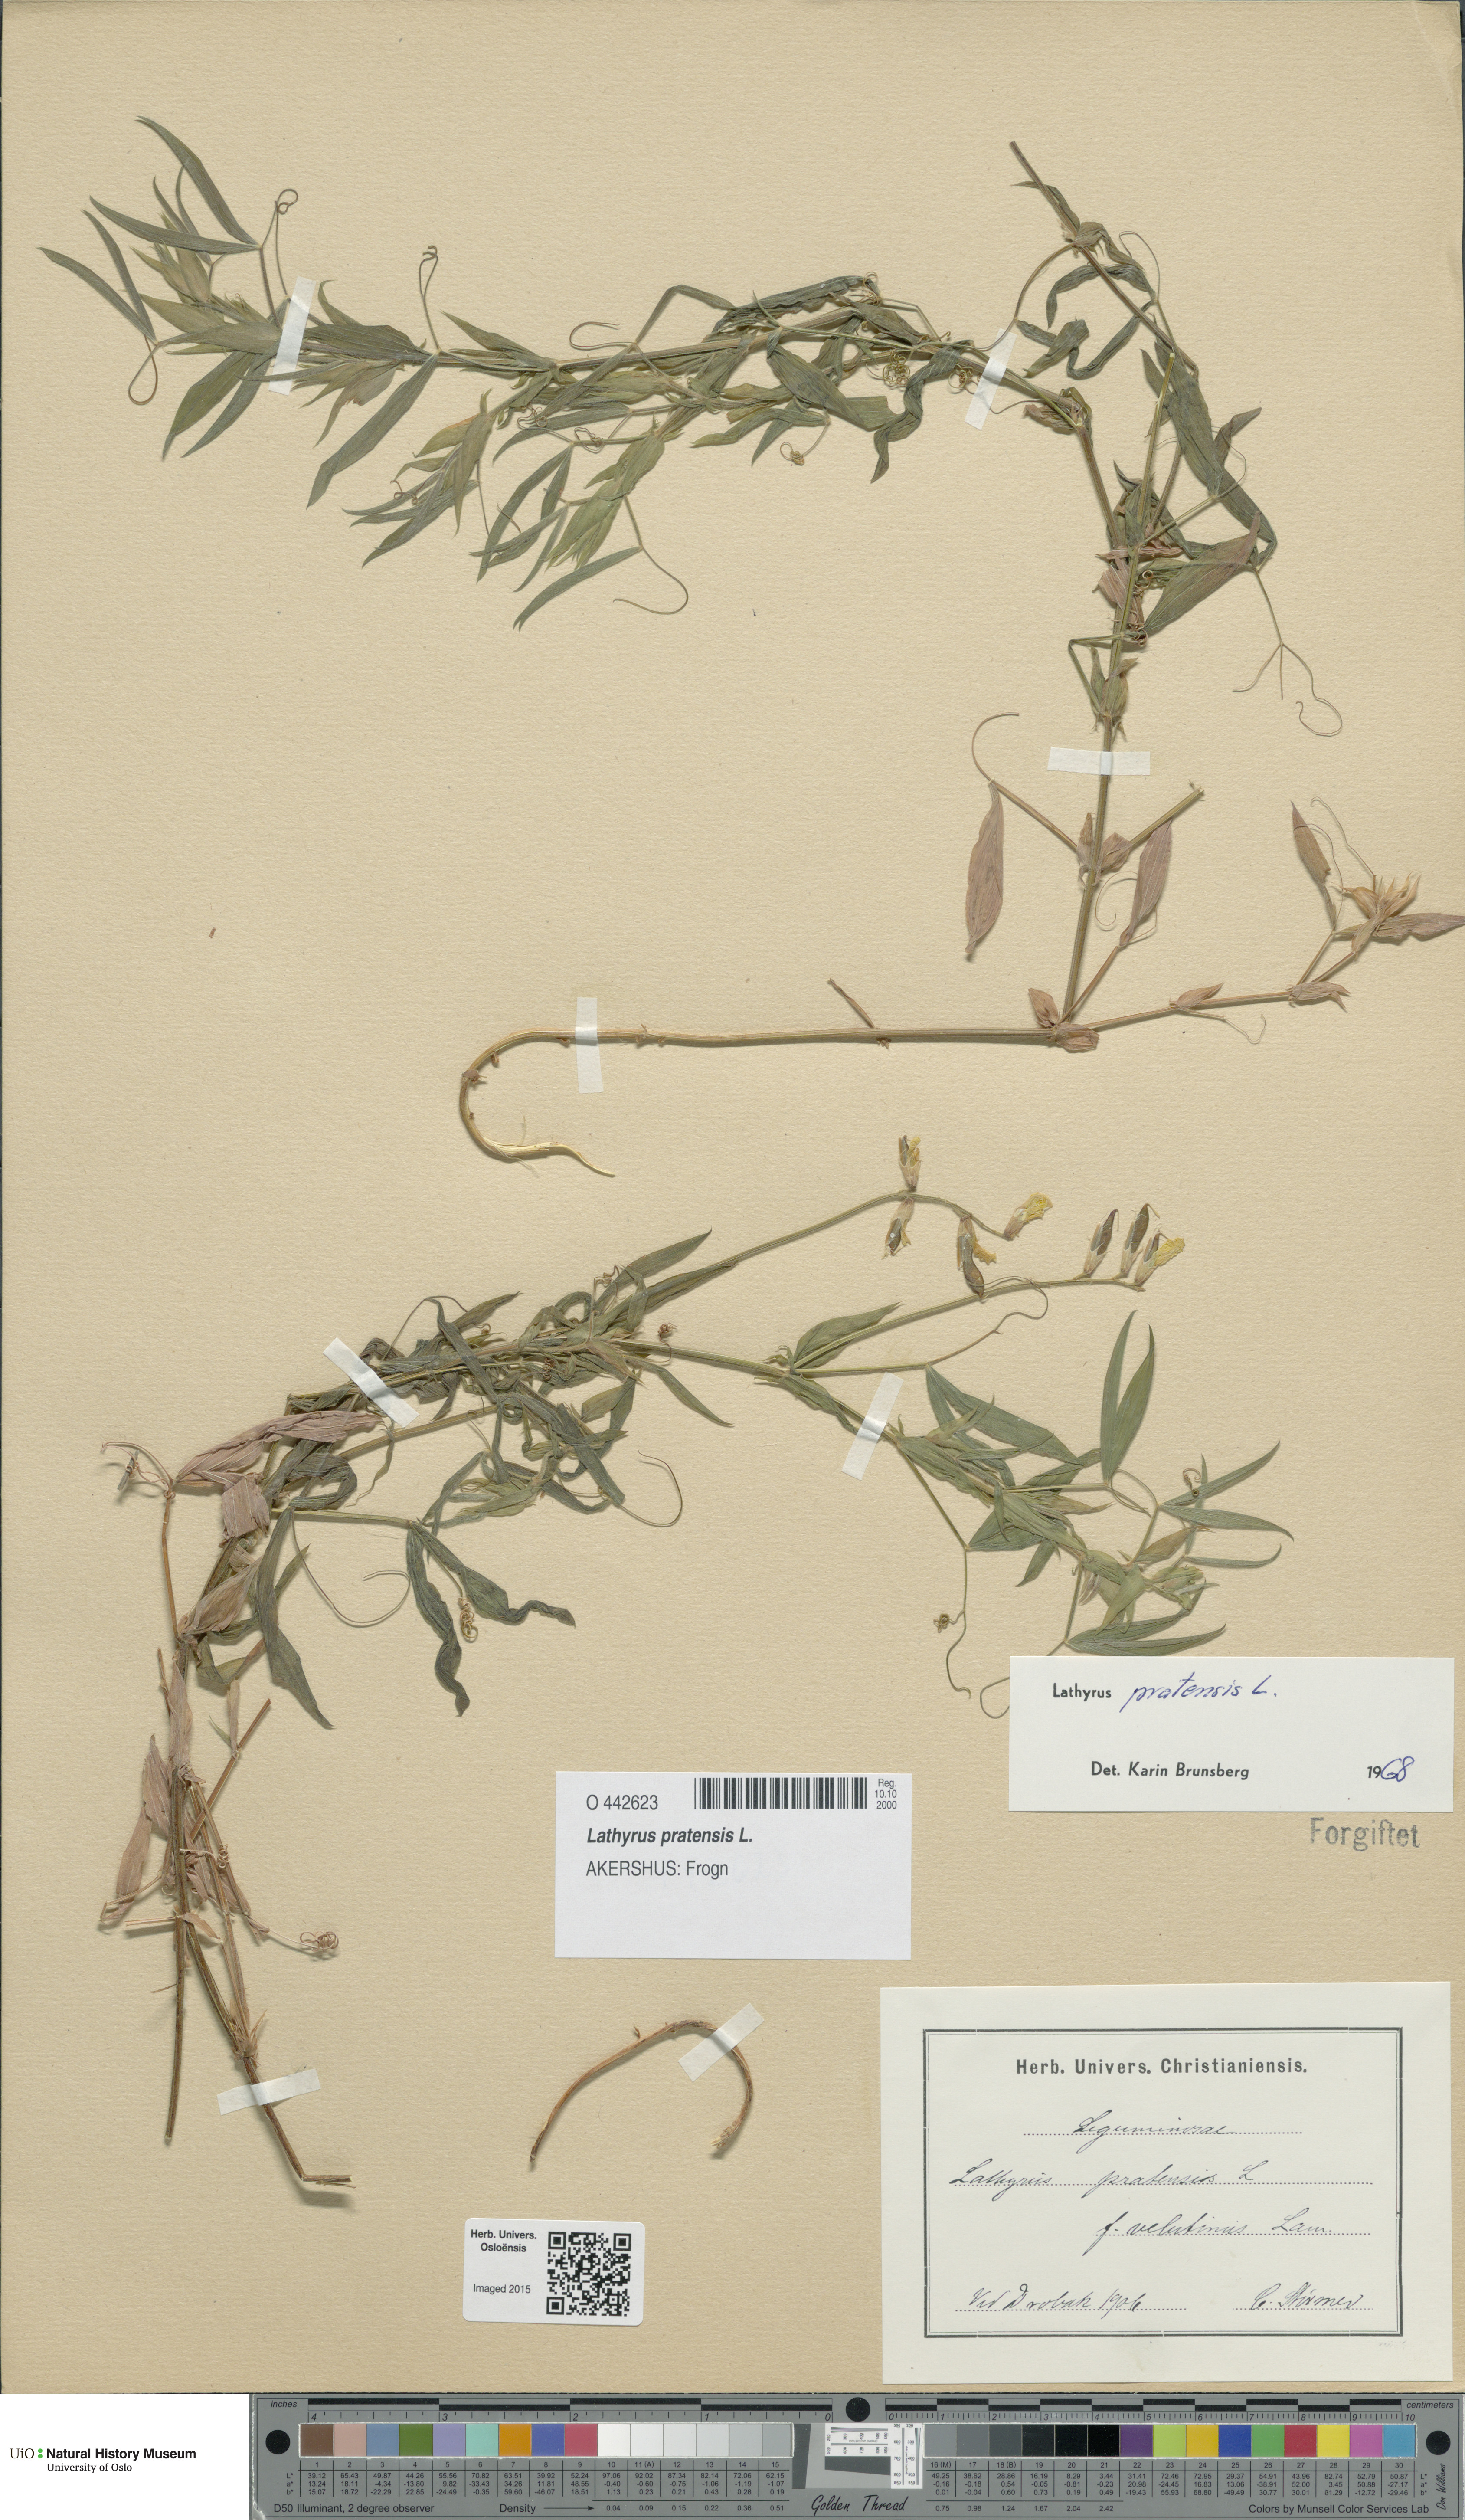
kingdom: Plantae
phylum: Tracheophyta
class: Magnoliopsida
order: Fabales
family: Fabaceae
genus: Lathyrus
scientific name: Lathyrus pratensis
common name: Meadow vetchling
